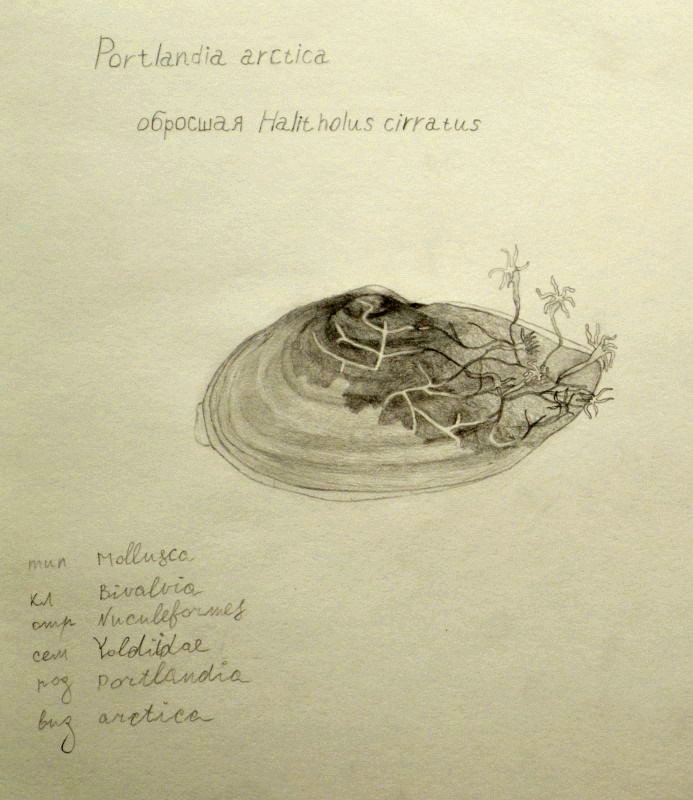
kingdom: Animalia
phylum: Mollusca
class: Bivalvia
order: Nuculanida
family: Yoldiidae
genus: Portlandia
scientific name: Portlandia arctica
